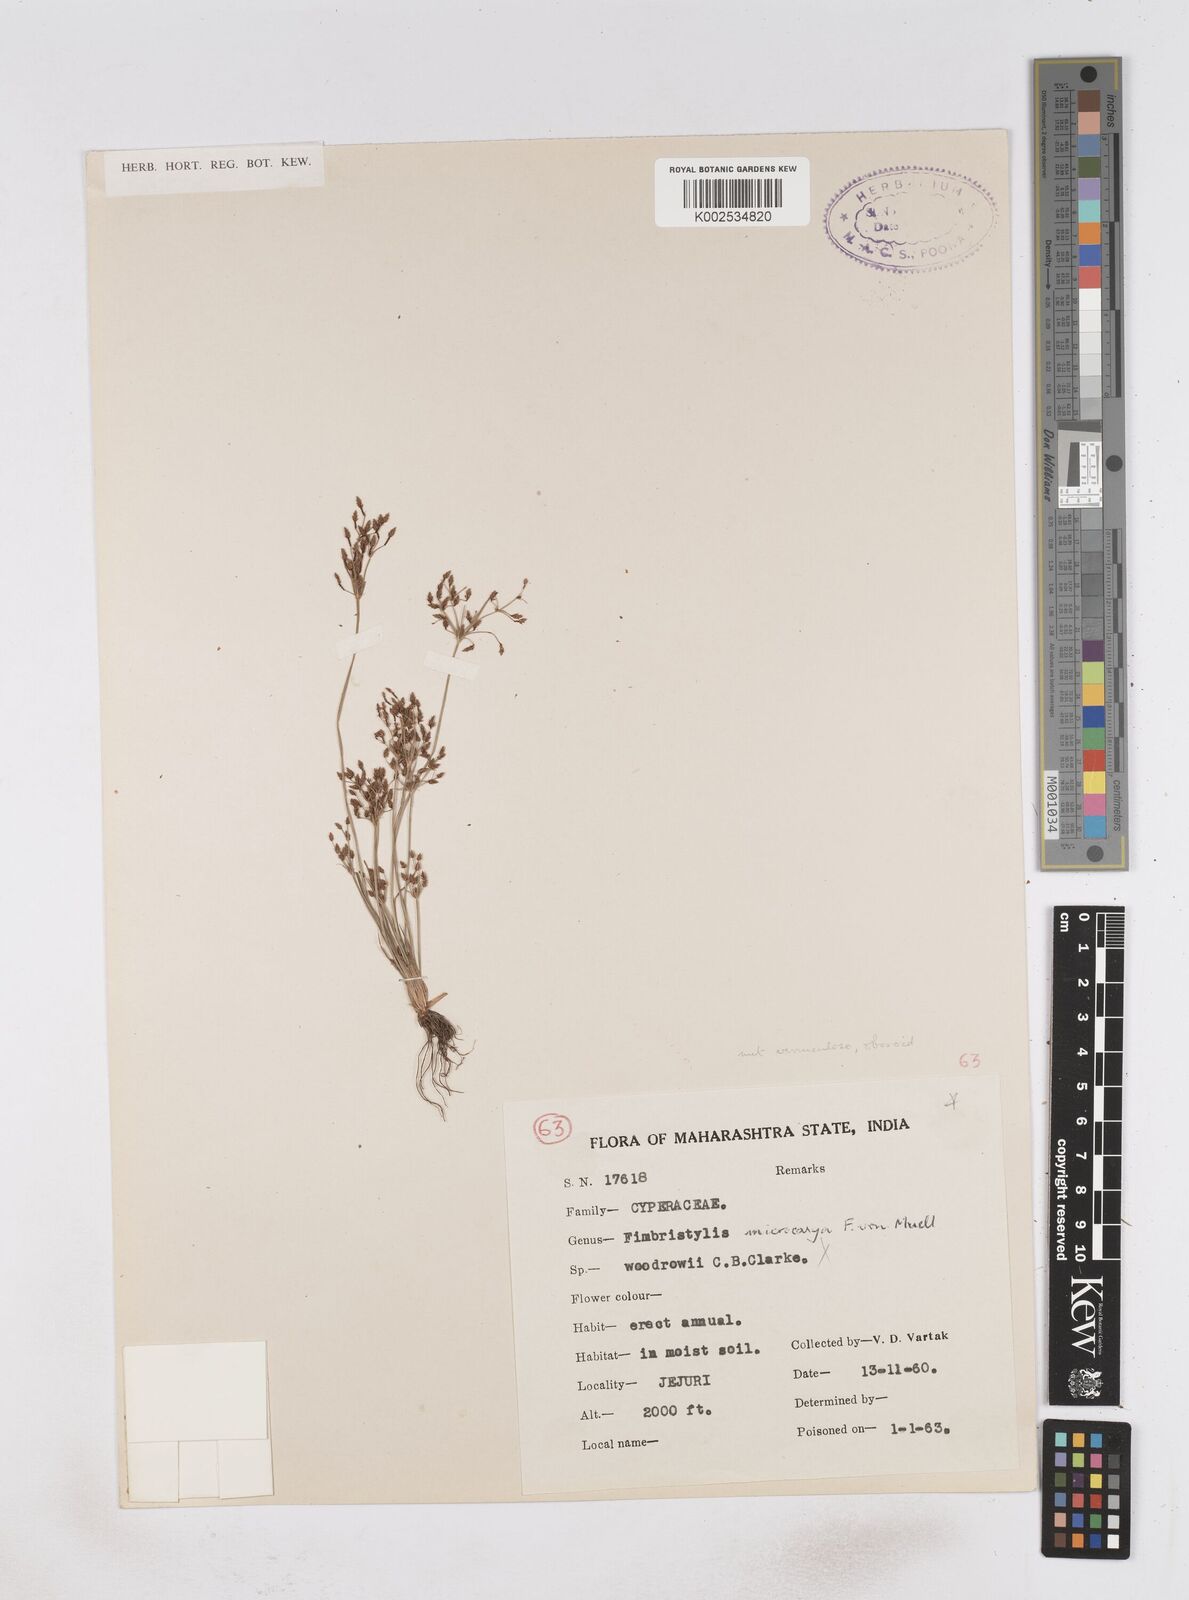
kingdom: Plantae
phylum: Tracheophyta
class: Liliopsida
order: Poales
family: Cyperaceae
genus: Fimbristylis
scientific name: Fimbristylis microcarya
